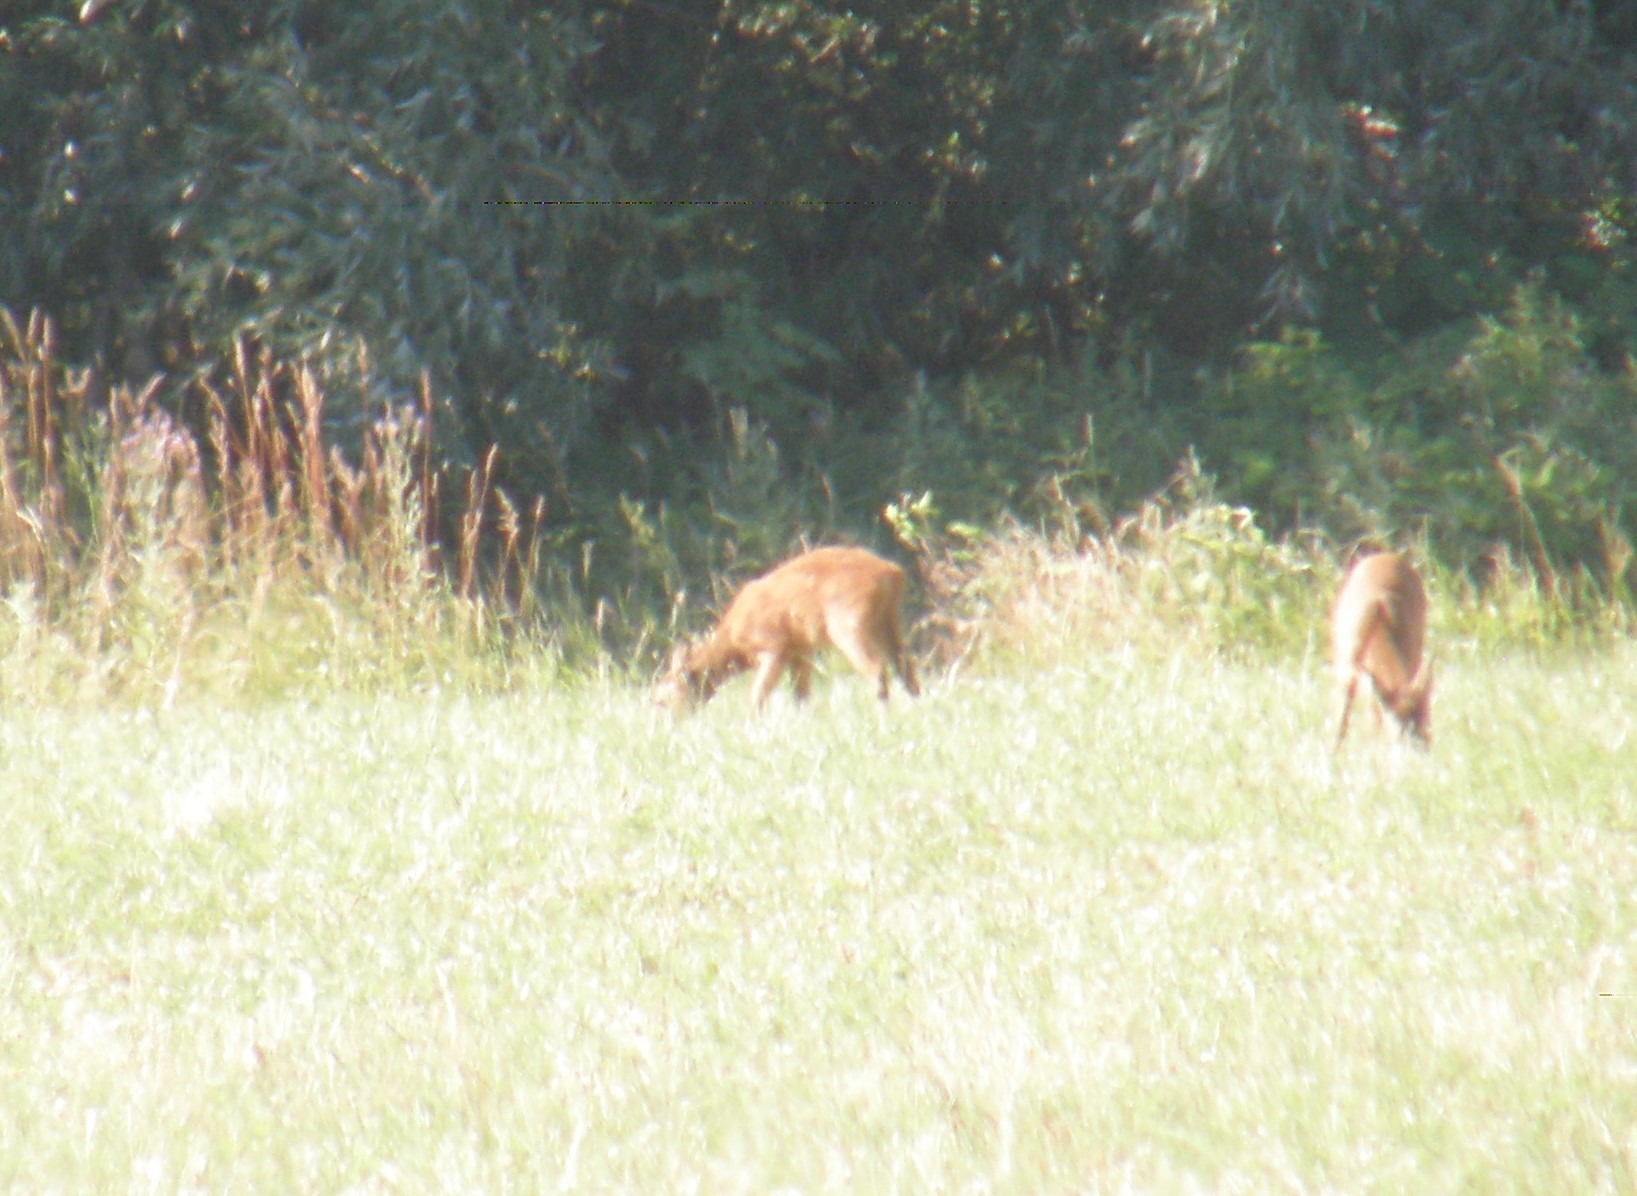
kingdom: Animalia
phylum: Chordata
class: Mammalia
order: Artiodactyla
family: Cervidae
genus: Capreolus
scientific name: Capreolus capreolus
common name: Rådyr
